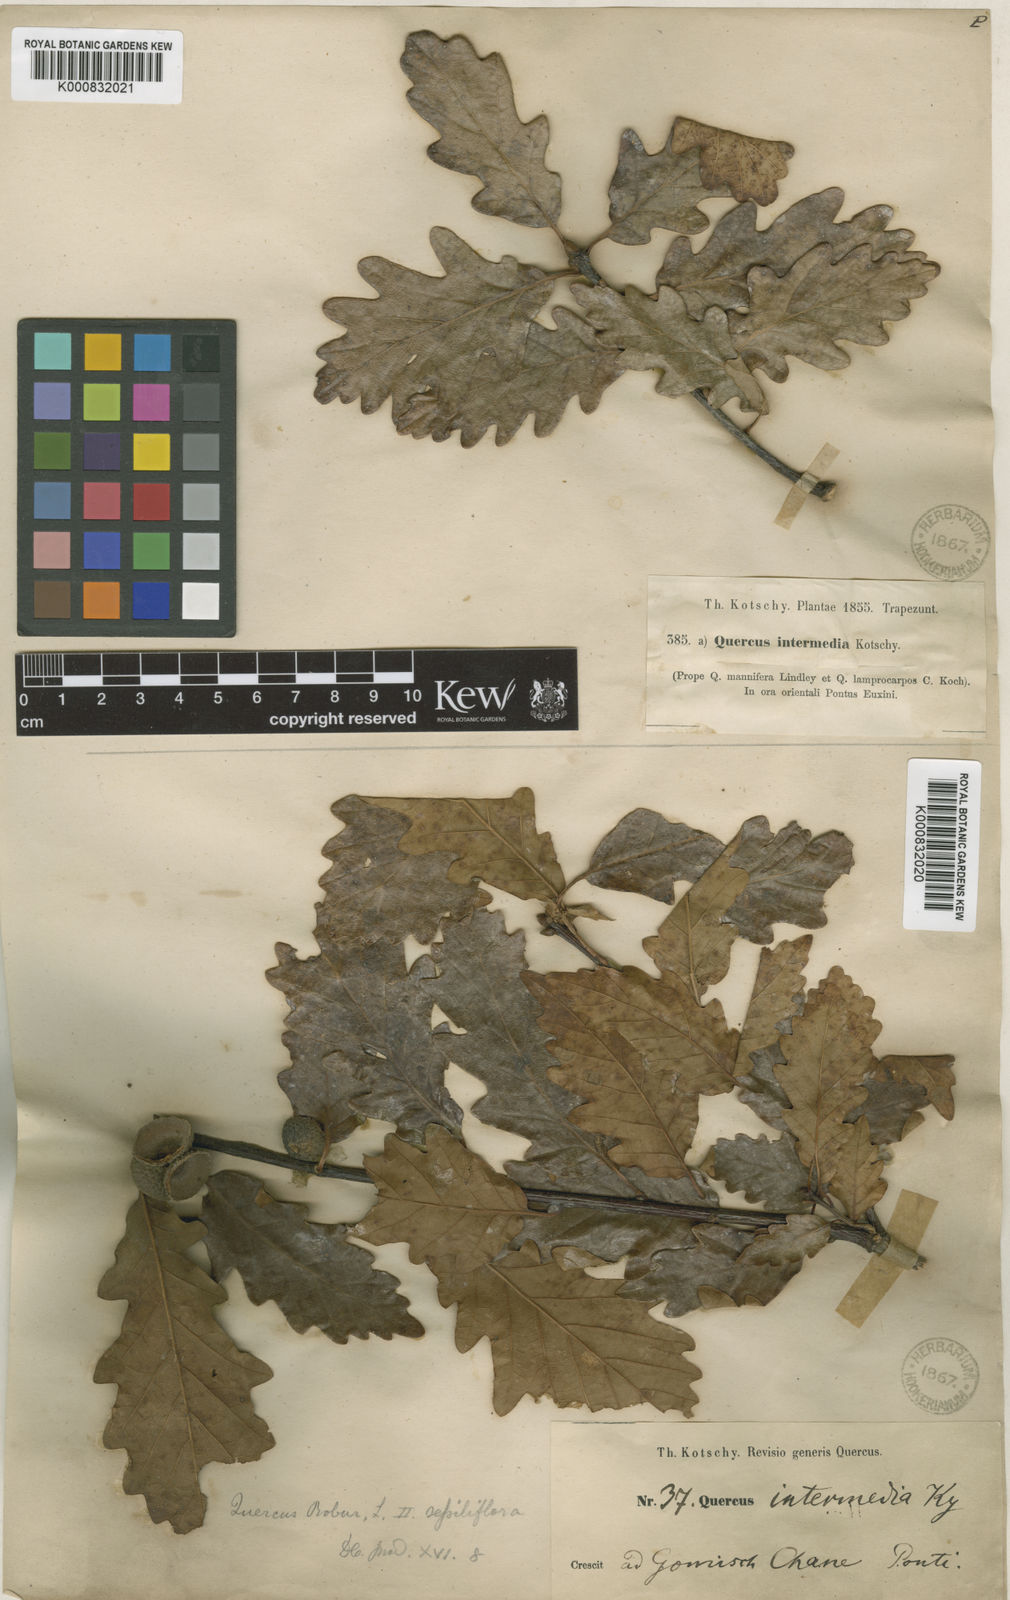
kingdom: Plantae
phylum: Tracheophyta
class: Magnoliopsida
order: Fagales
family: Fagaceae
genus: Quercus
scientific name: Quercus petraea
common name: Sessile oak
